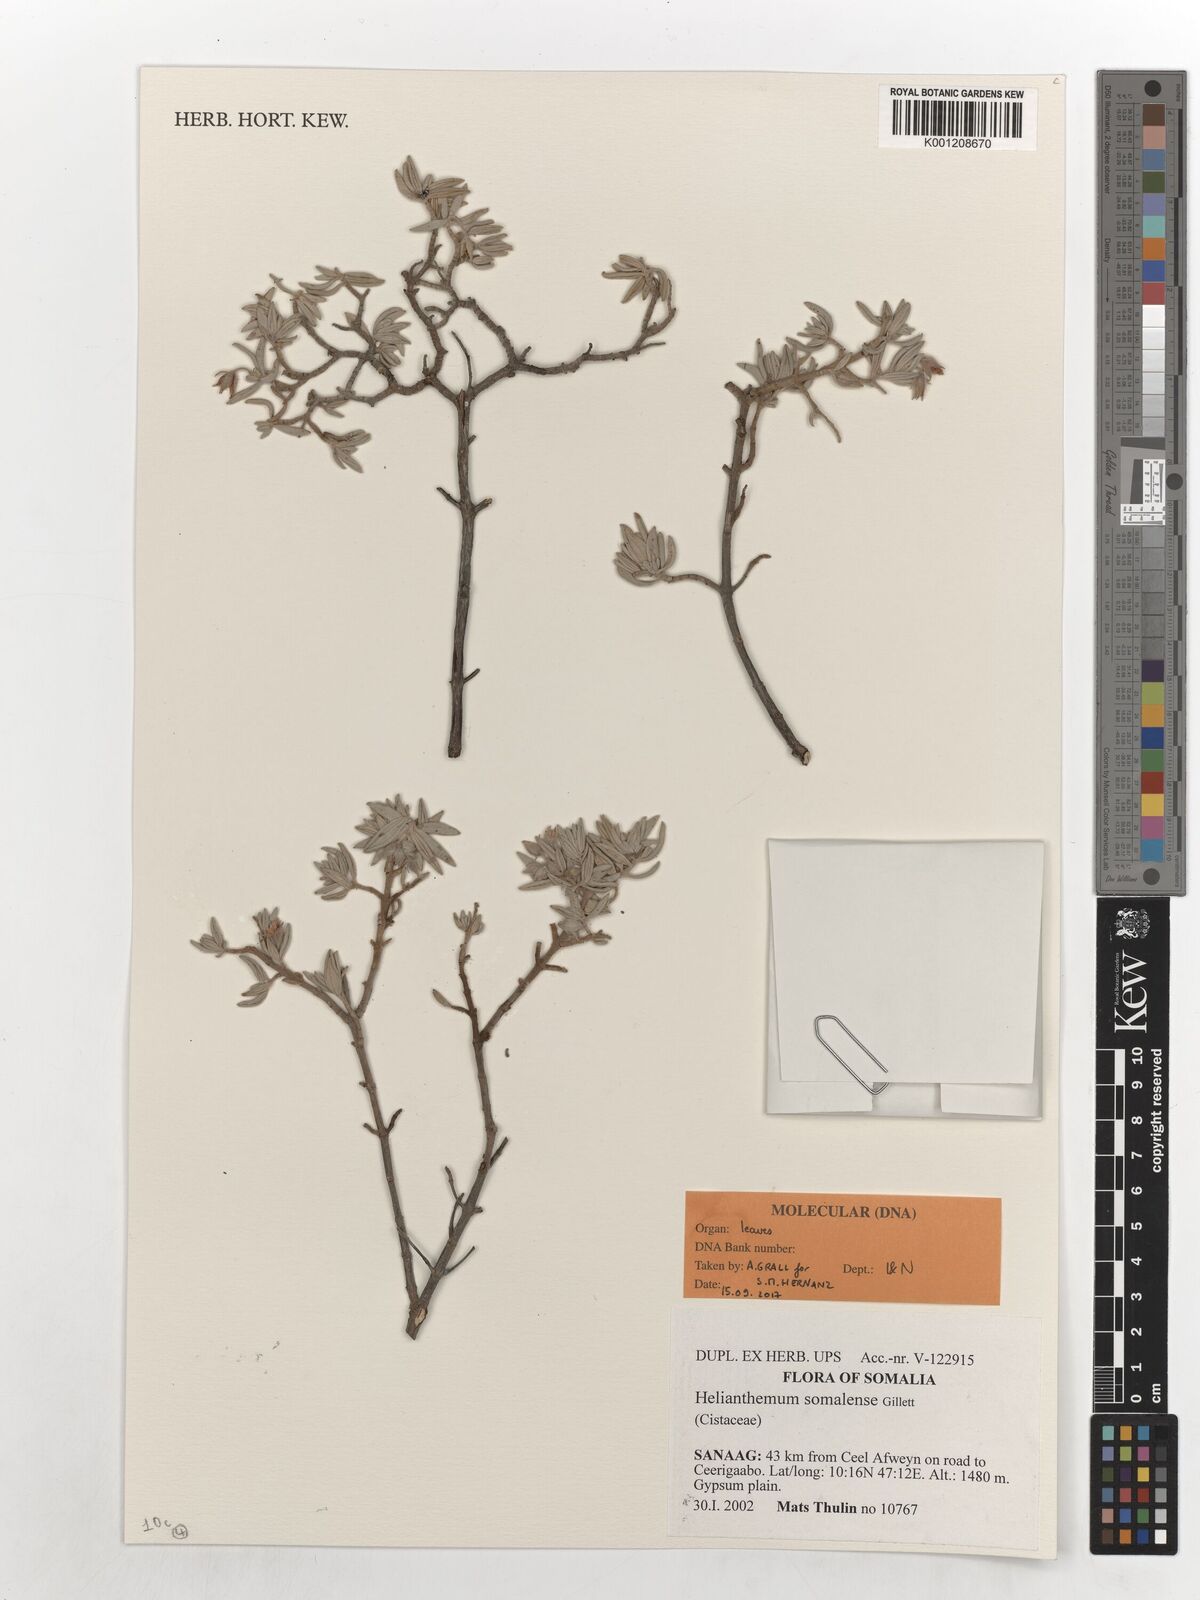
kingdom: Plantae
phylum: Tracheophyta
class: Magnoliopsida
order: Malvales
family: Cistaceae
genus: Helianthemum
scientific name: Helianthemum somalense
